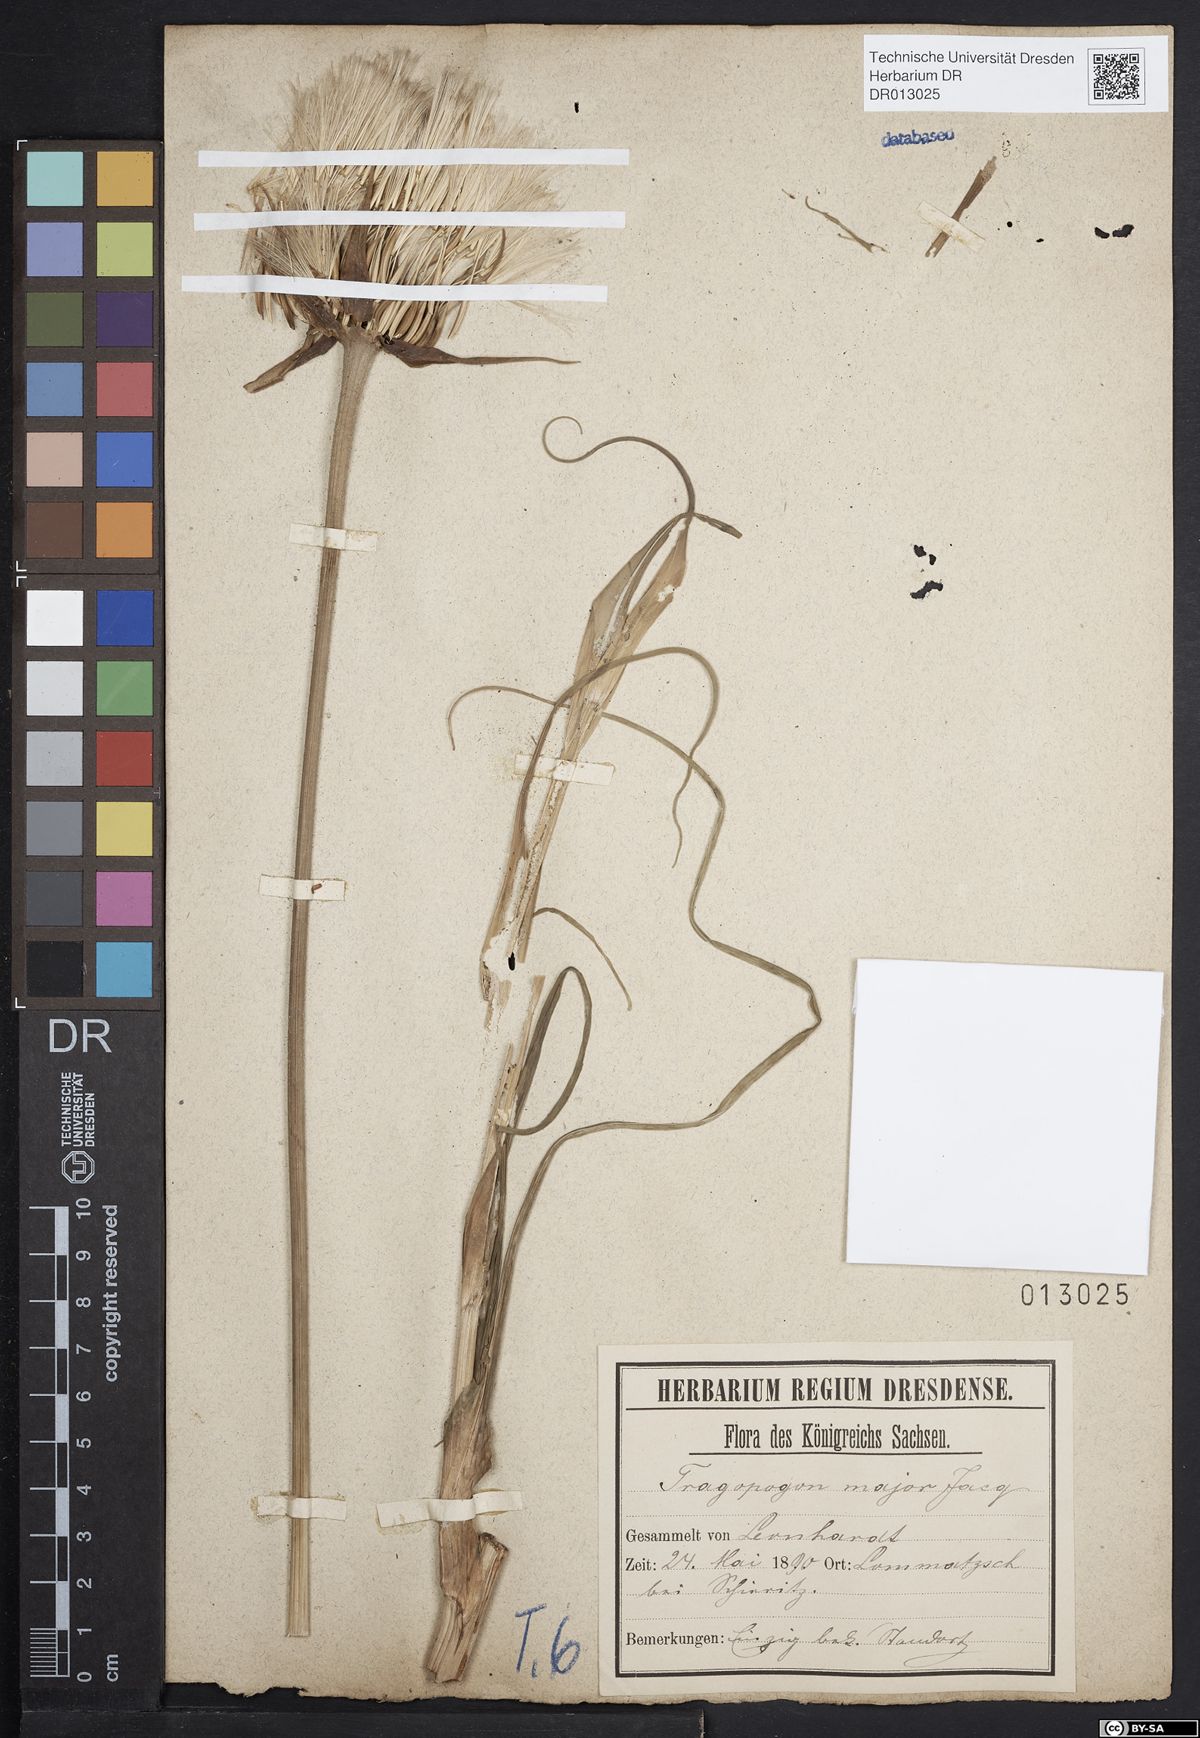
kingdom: Plantae
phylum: Tracheophyta
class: Magnoliopsida
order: Asterales
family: Asteraceae
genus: Tragopogon
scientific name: Tragopogon dubius
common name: Yellow salsify
